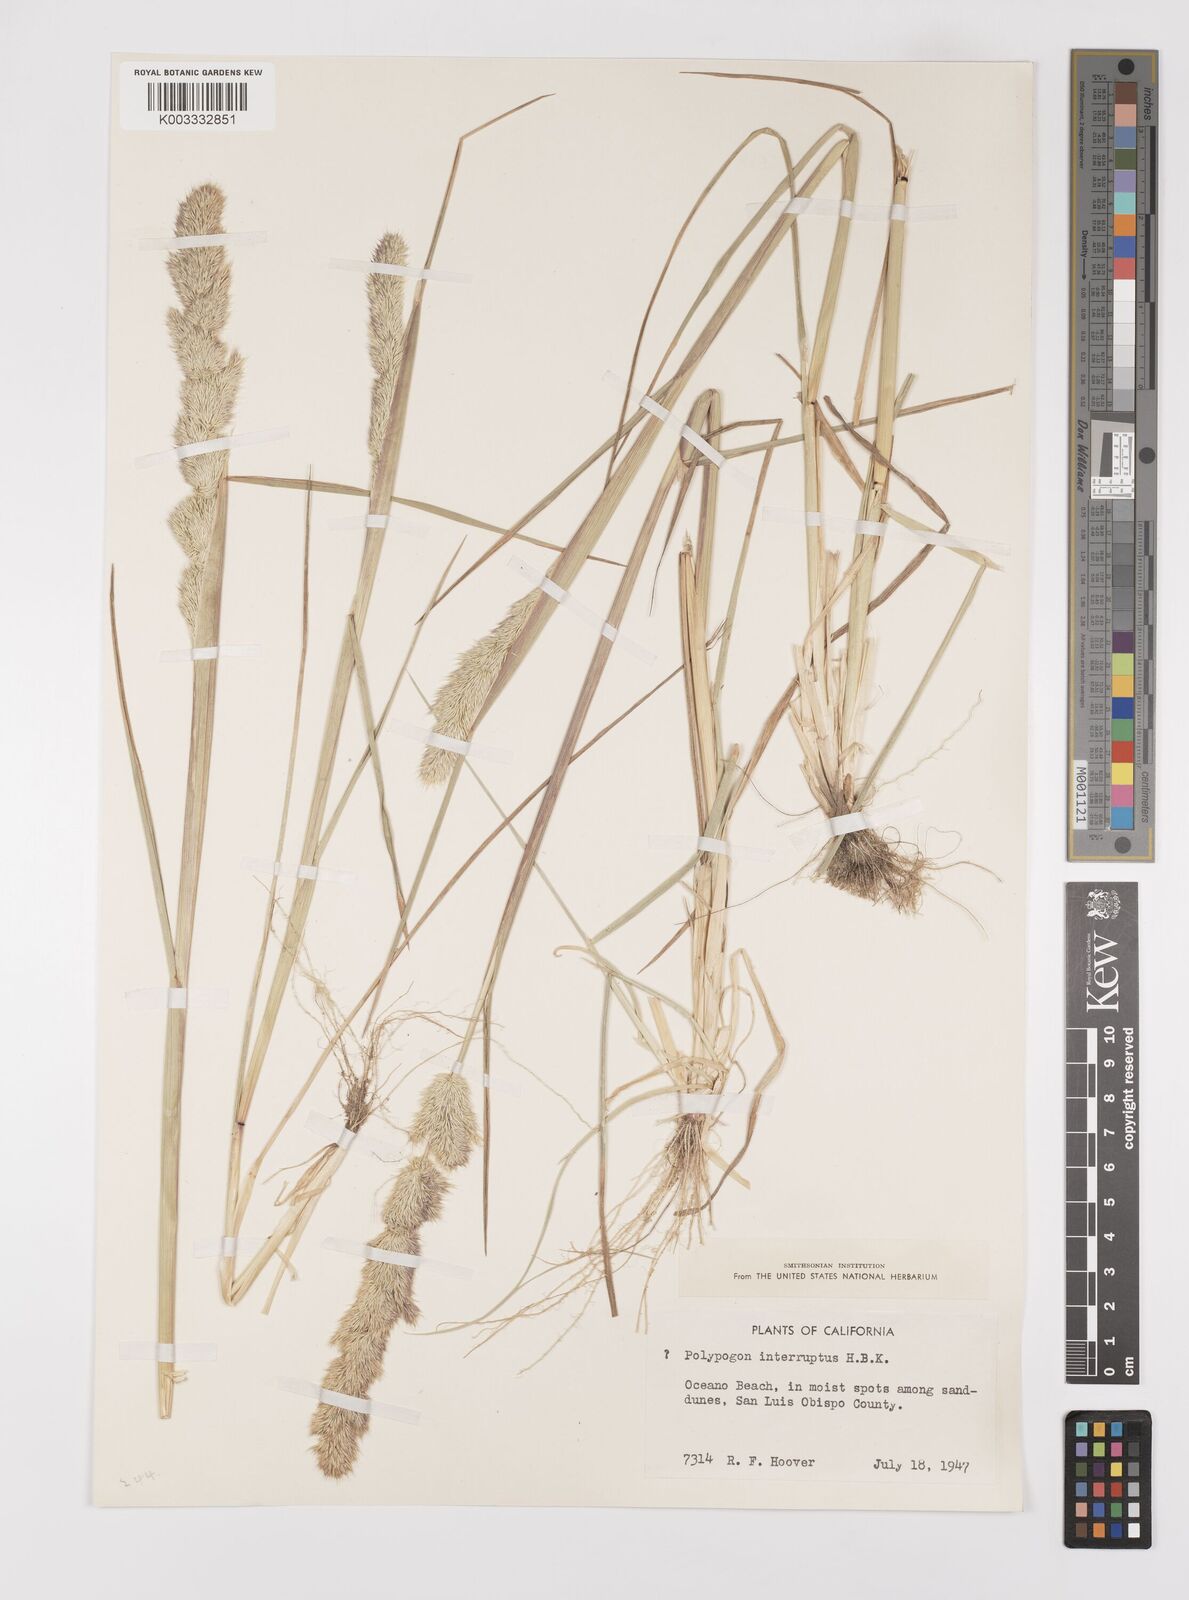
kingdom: Plantae
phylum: Tracheophyta
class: Liliopsida
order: Poales
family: Poaceae
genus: Polypogon
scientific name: Polypogon interruptus
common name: Ditch polypogon
